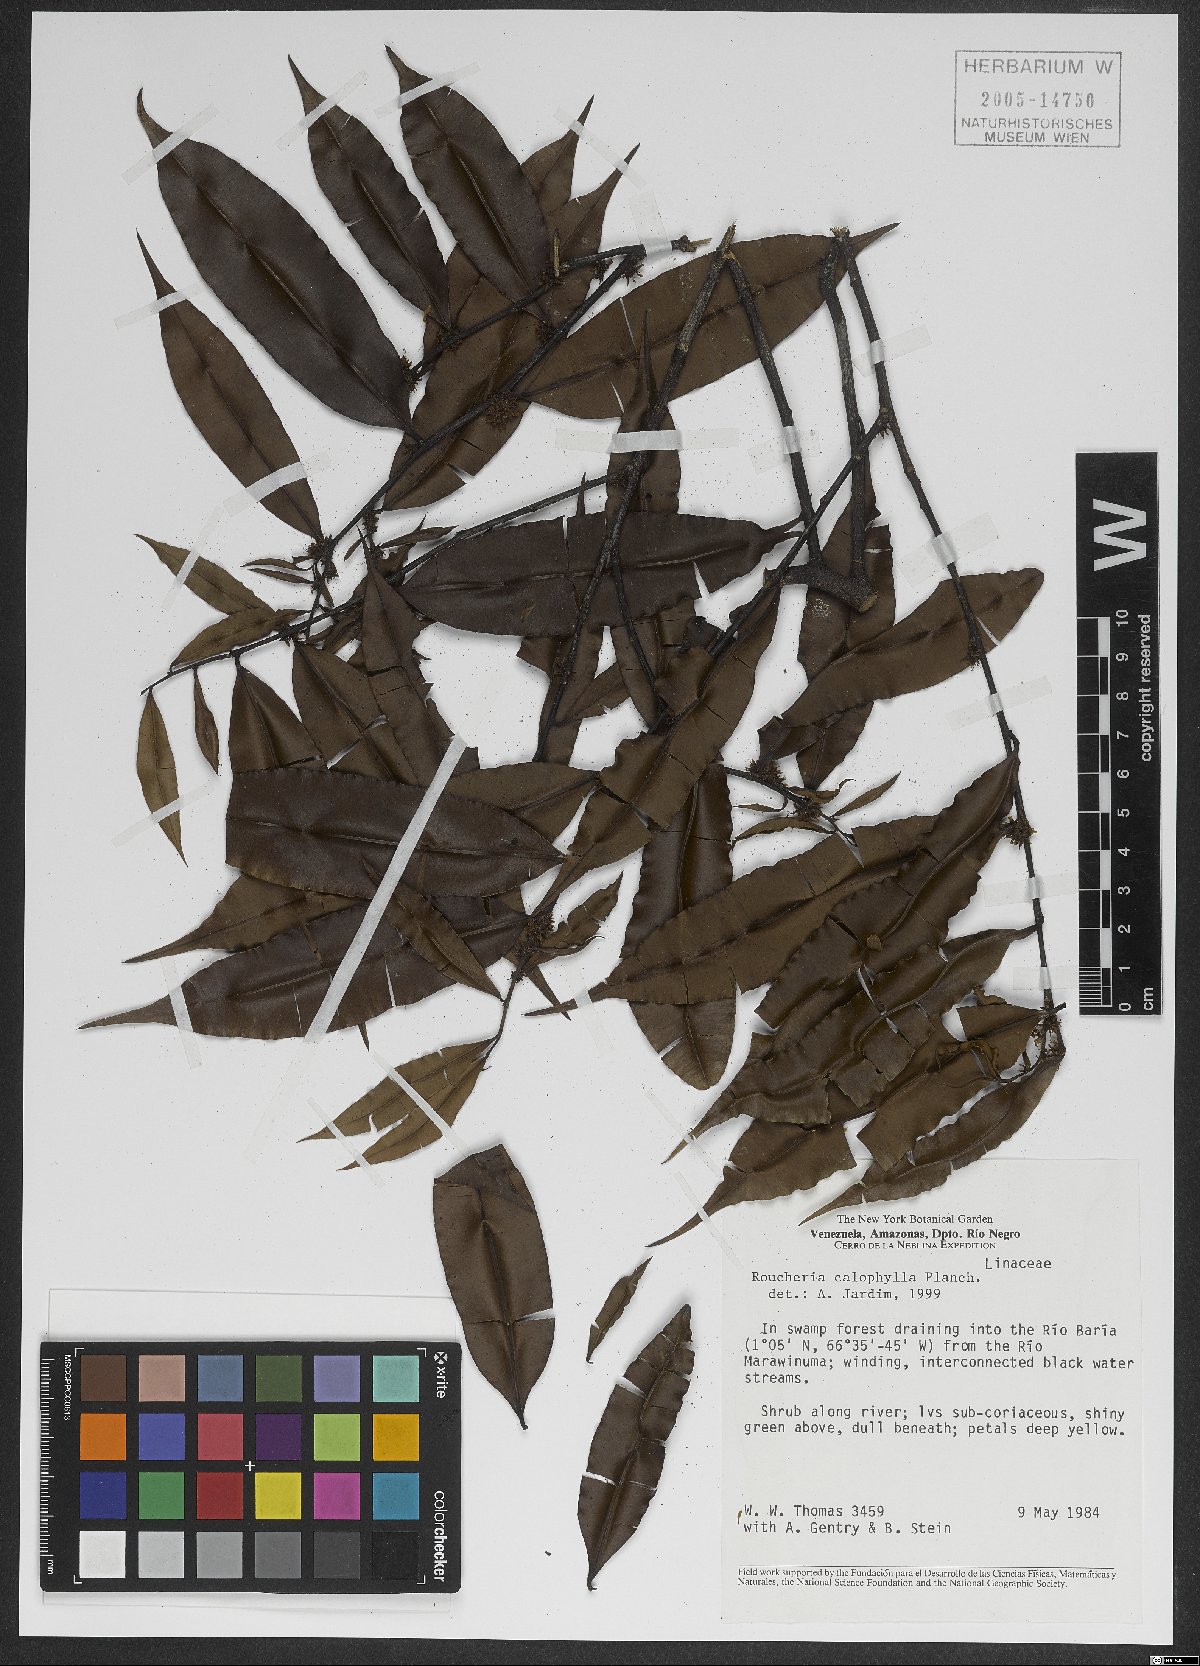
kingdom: Plantae
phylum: Tracheophyta
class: Magnoliopsida
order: Malpighiales
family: Linaceae
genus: Roucheria
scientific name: Roucheria calophylla
